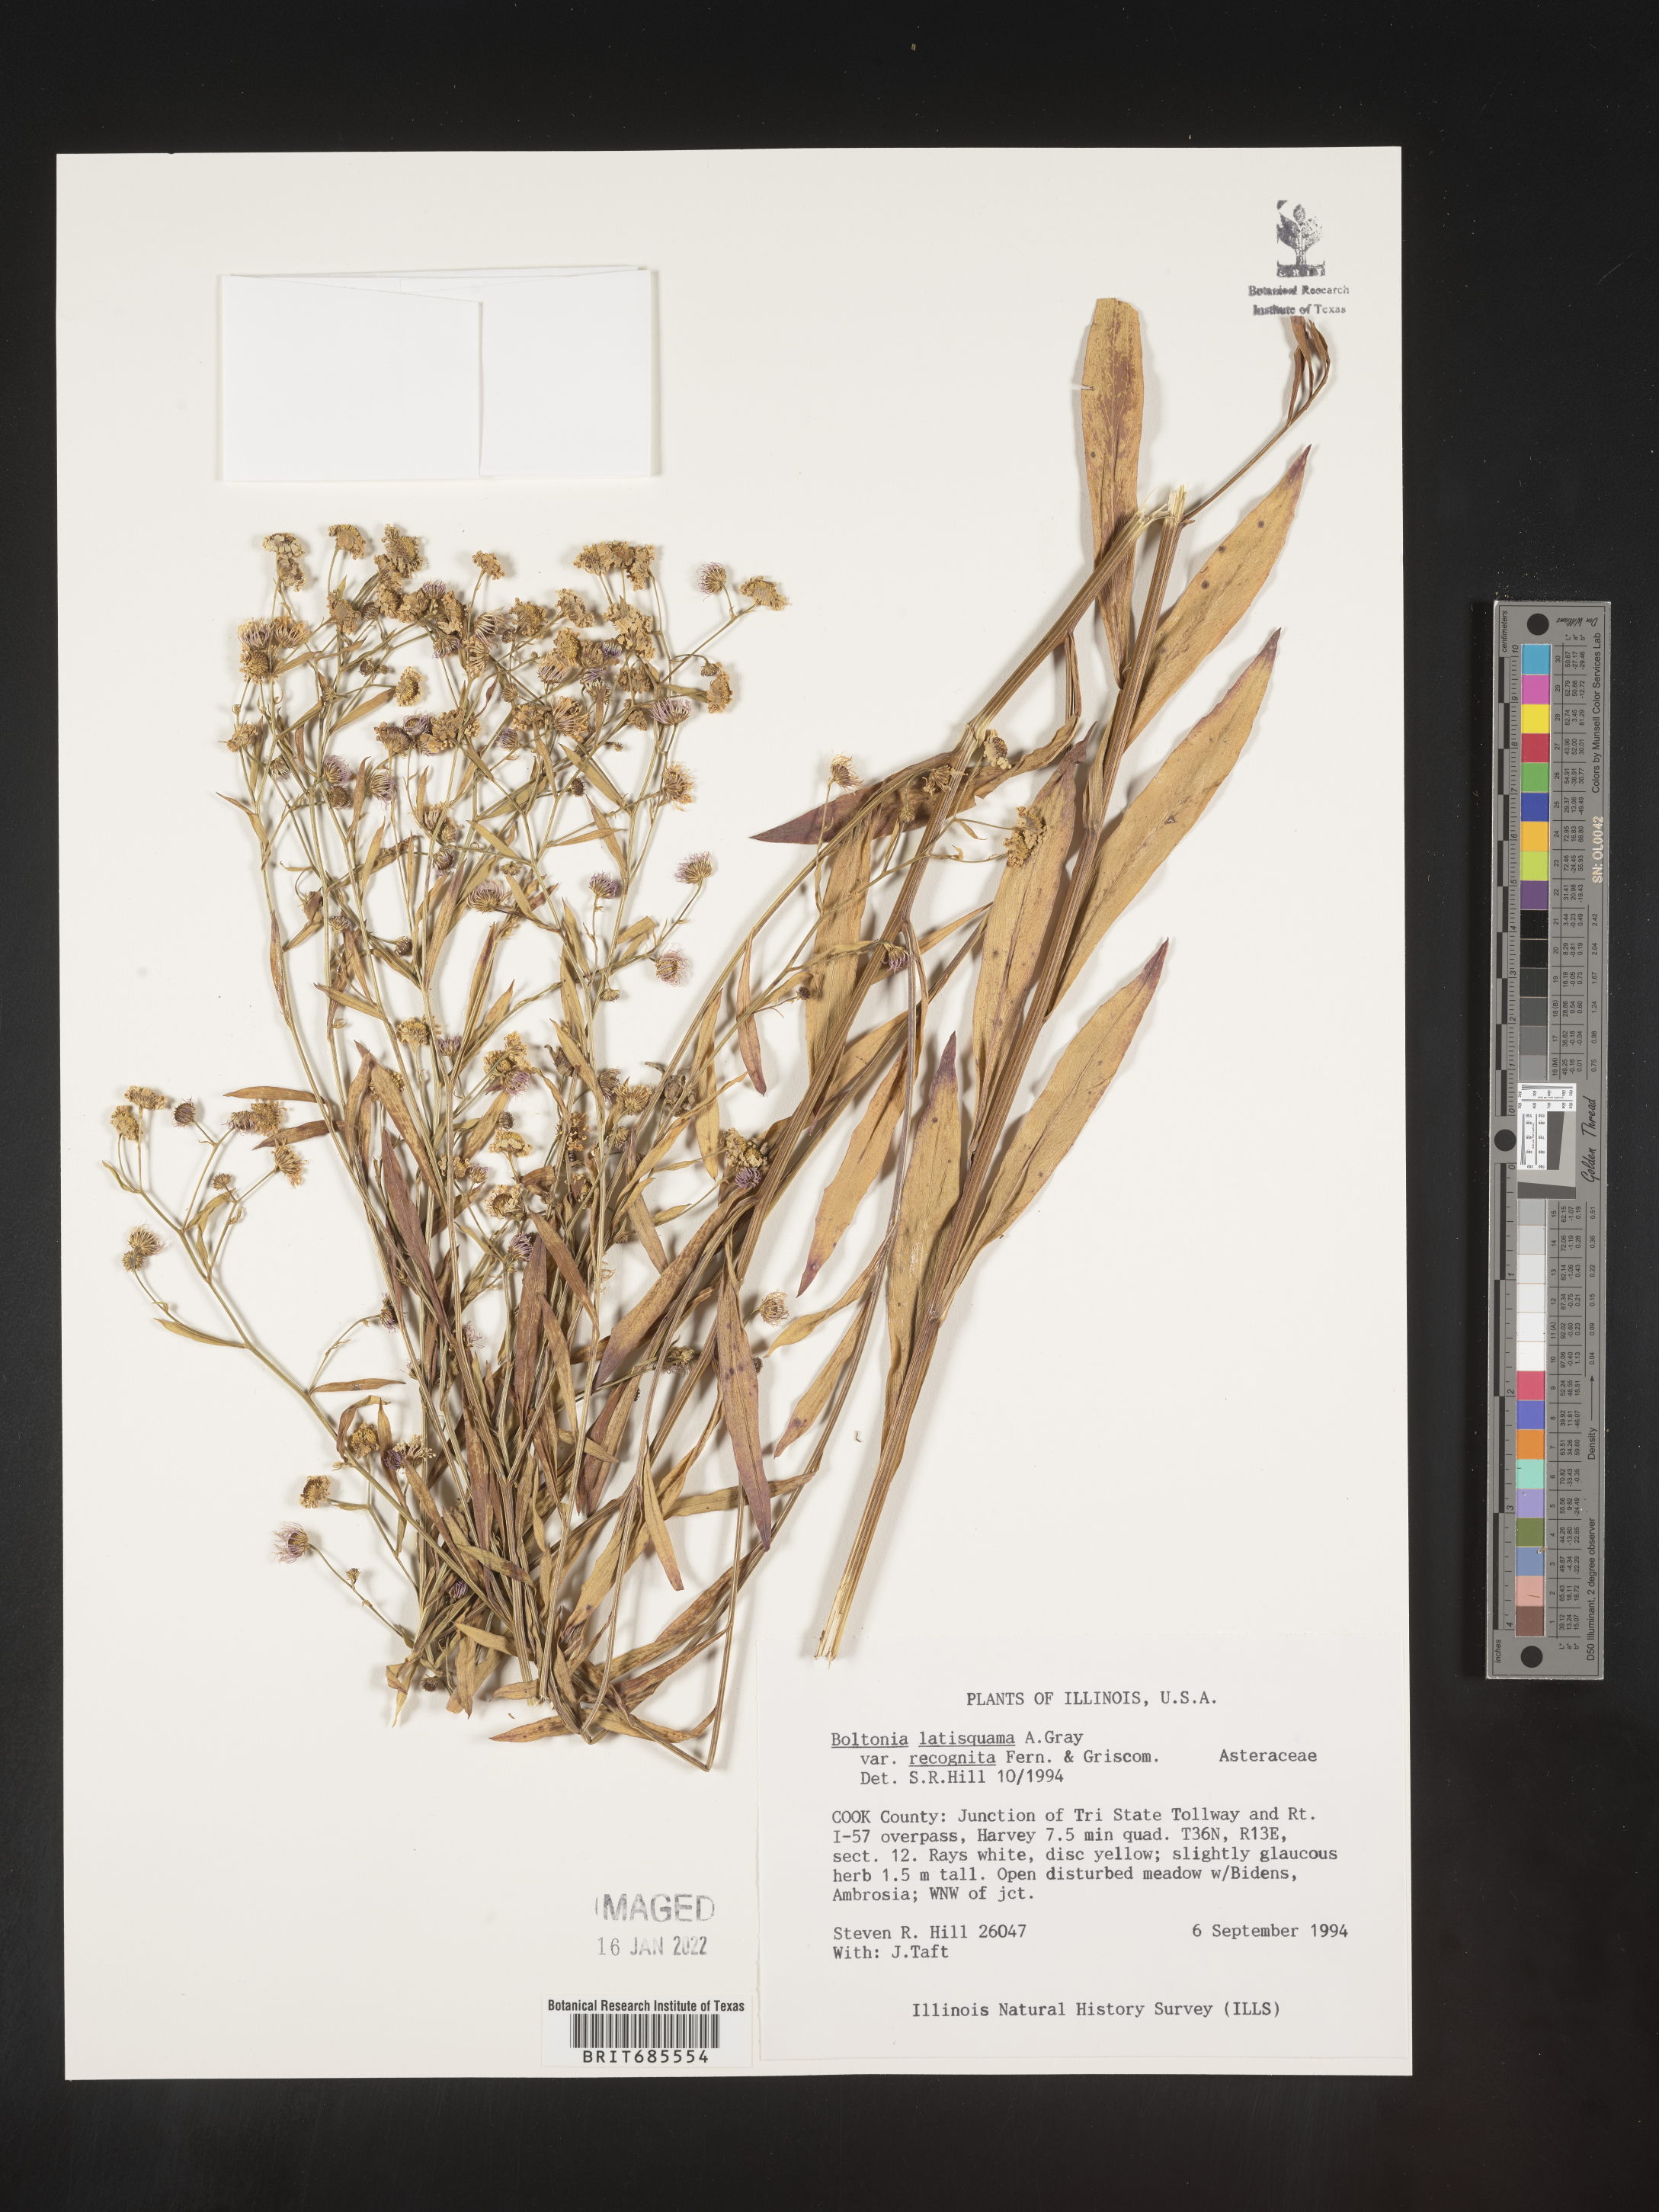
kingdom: Plantae
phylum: Tracheophyta
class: Magnoliopsida
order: Asterales
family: Asteraceae
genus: Boltonia
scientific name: Boltonia
